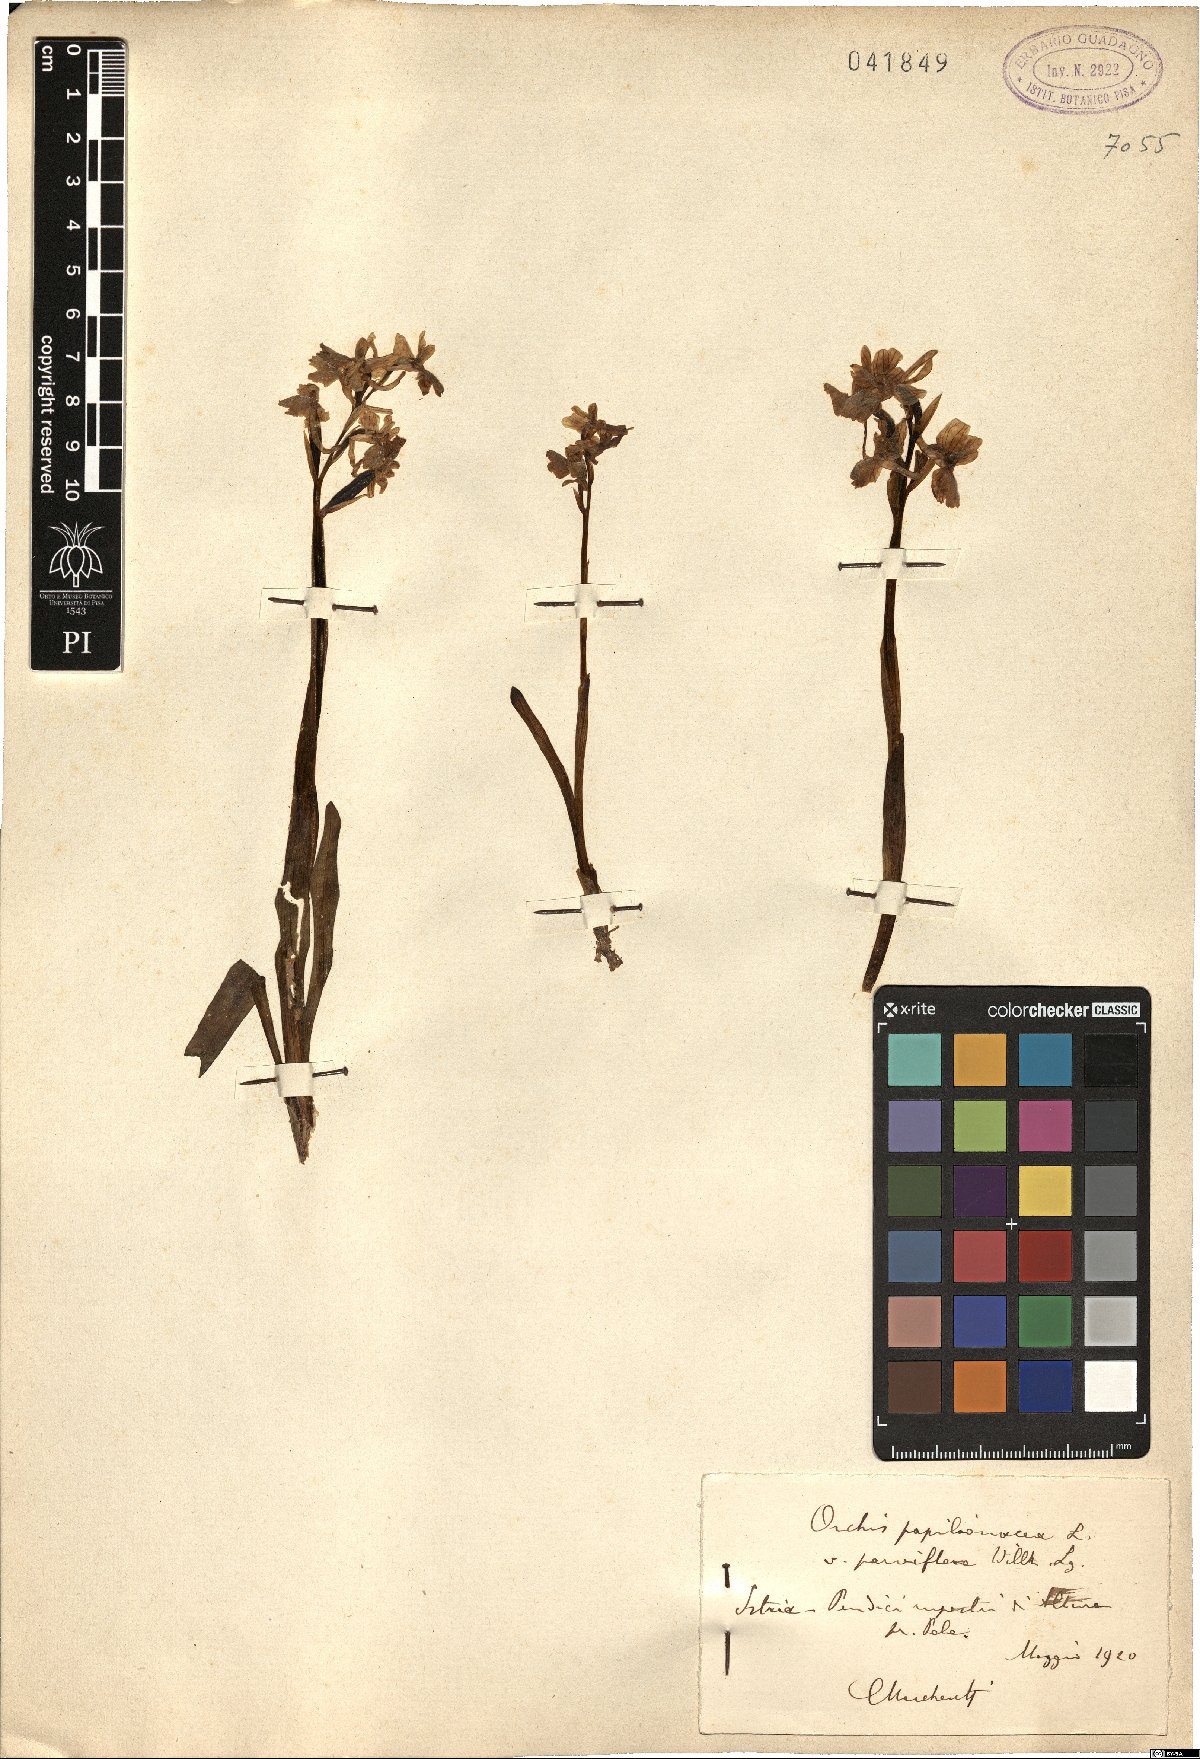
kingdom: Plantae
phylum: Tracheophyta
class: Liliopsida
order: Asparagales
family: Orchidaceae
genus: Anacamptis
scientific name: Anacamptis papilionacea
